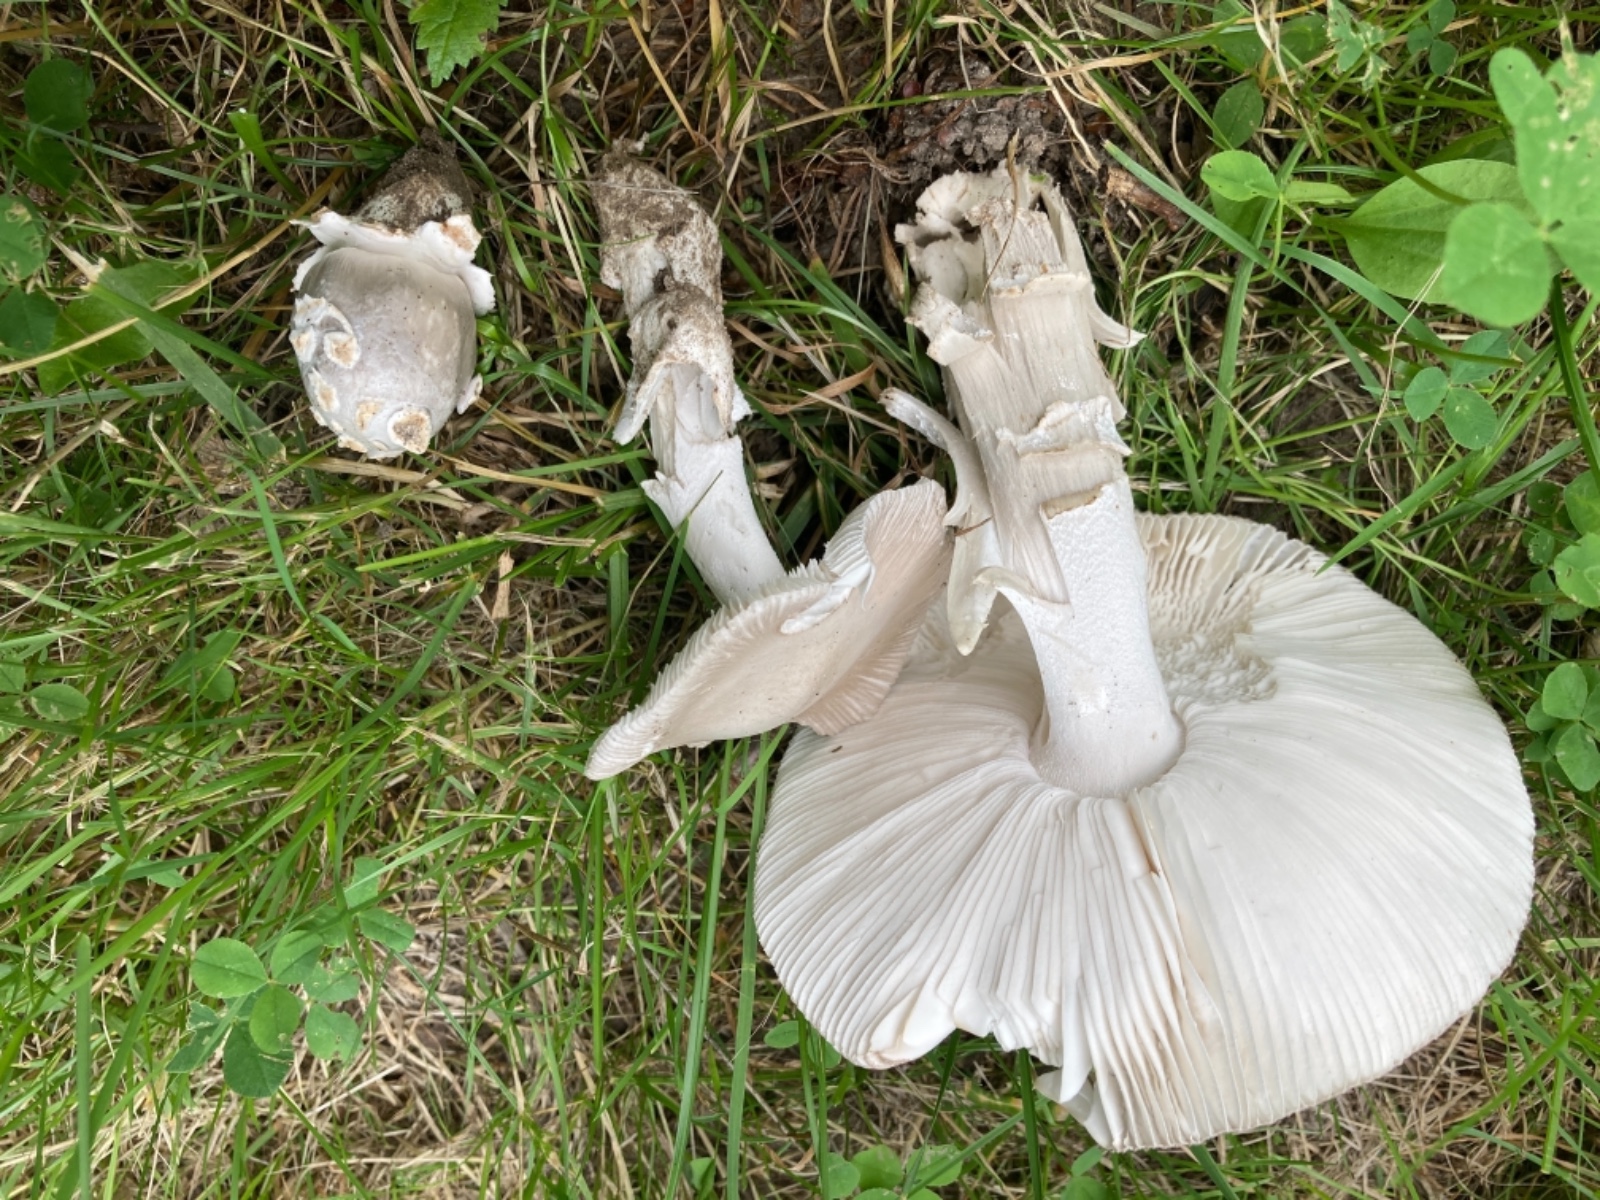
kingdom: Fungi
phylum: Basidiomycota
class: Agaricomycetes
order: Agaricales
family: Amanitaceae
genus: Amanita
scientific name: Amanita huijsmanii
